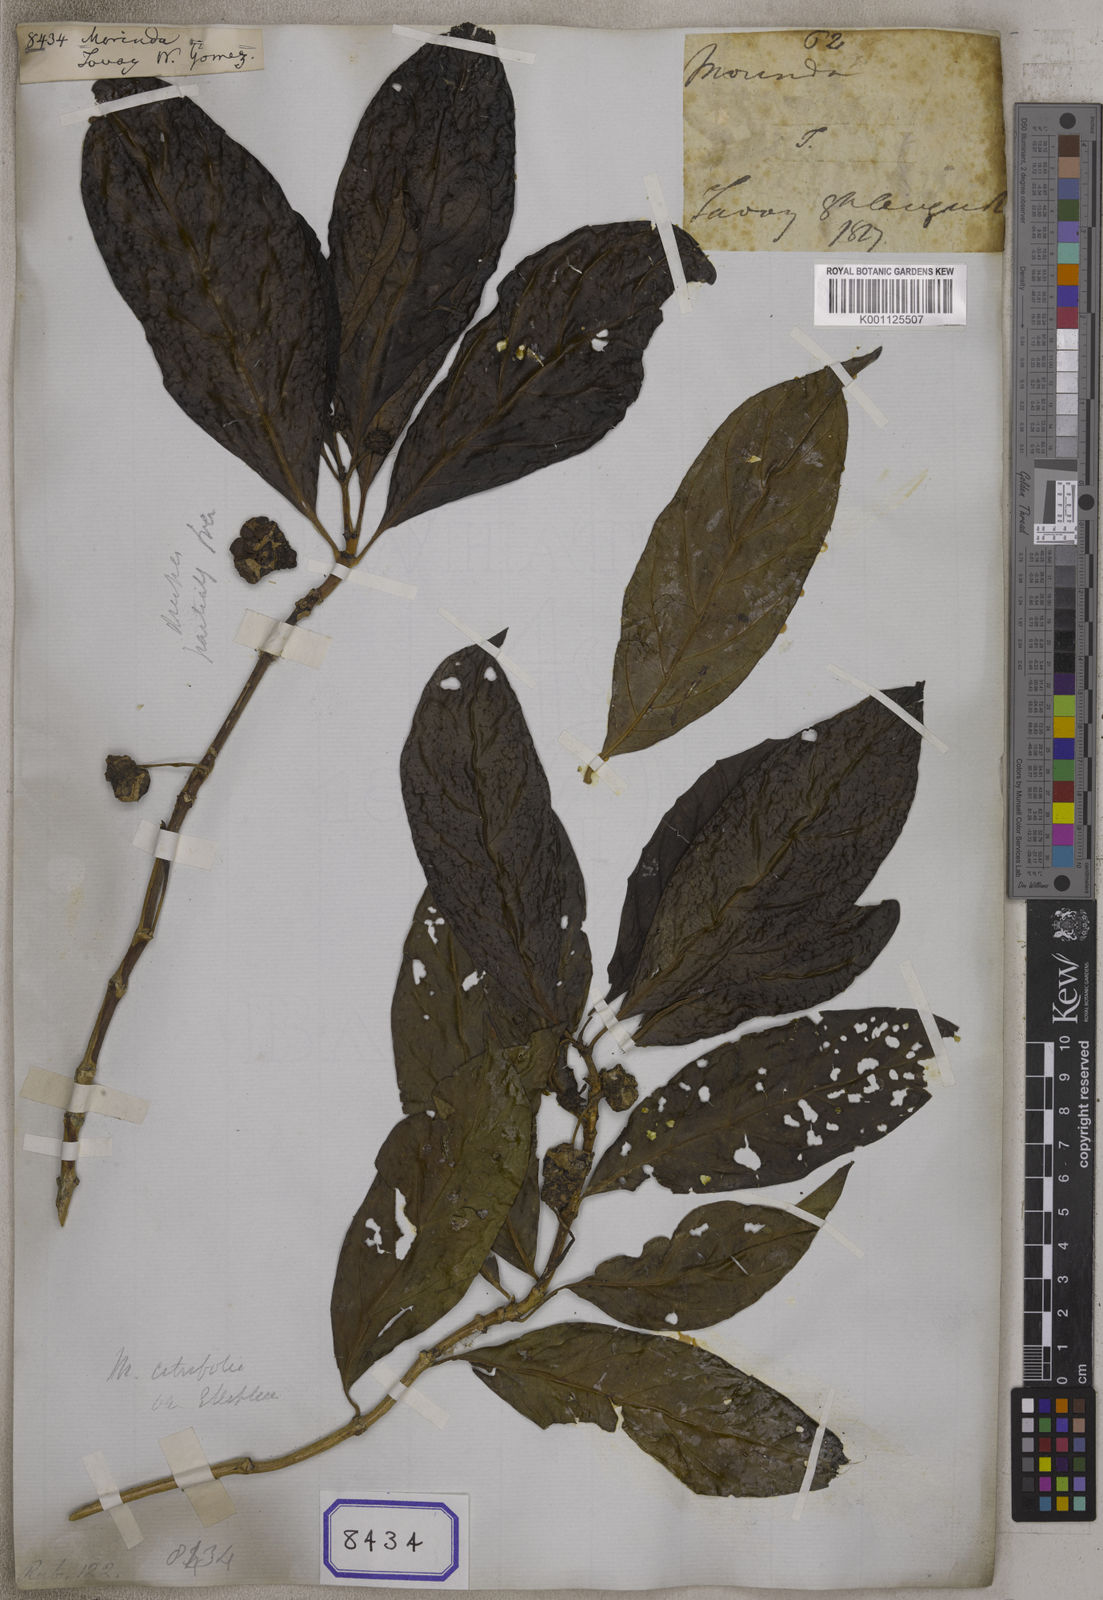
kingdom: Plantae
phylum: Tracheophyta
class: Magnoliopsida
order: Gentianales
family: Rubiaceae
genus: Morinda
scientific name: Morinda
